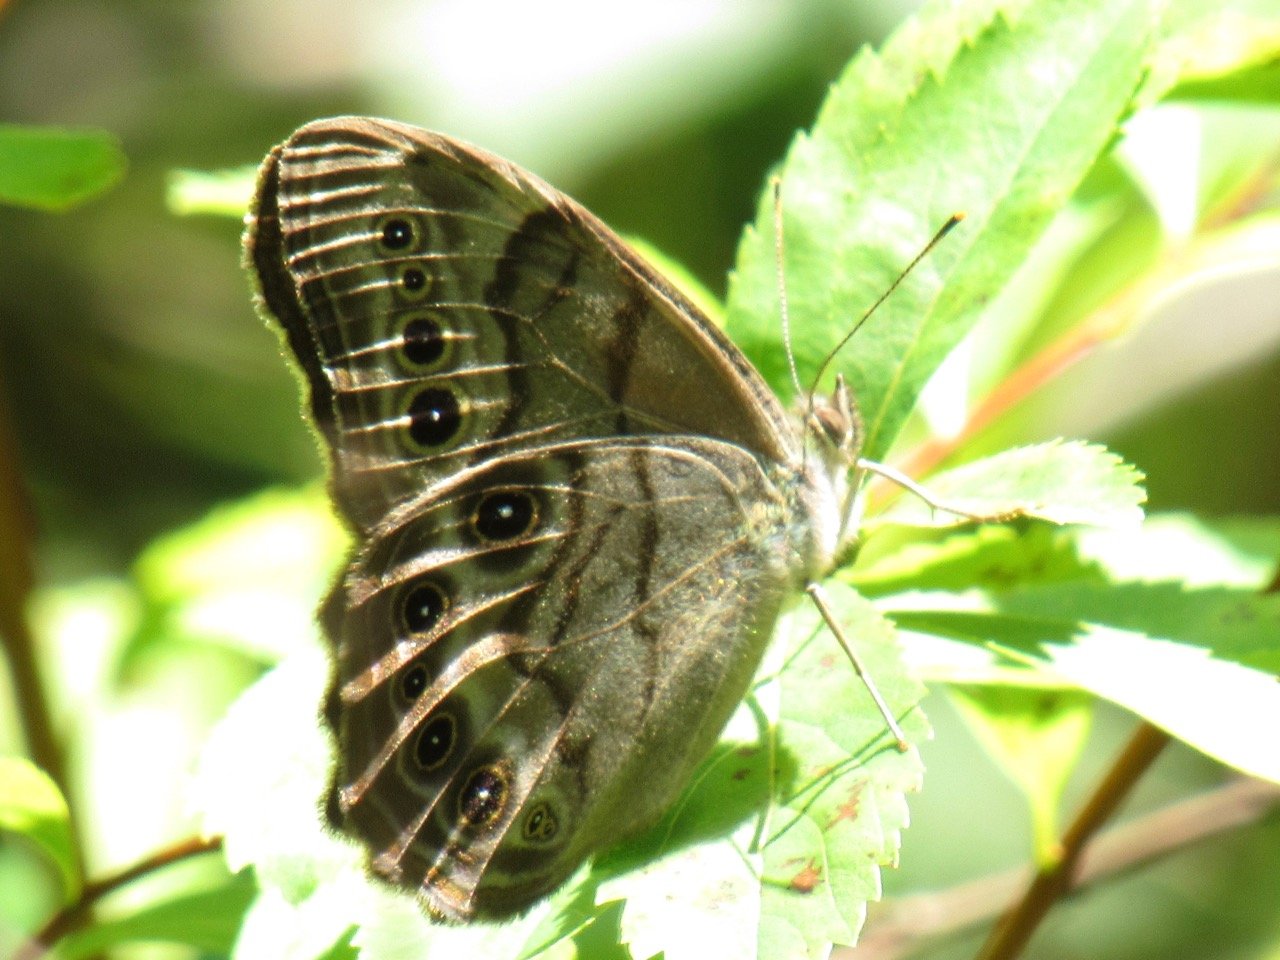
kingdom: Animalia
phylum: Arthropoda
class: Insecta
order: Lepidoptera
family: Nymphalidae
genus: Lethe
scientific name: Lethe anthedon
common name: Northern Pearly-Eye
